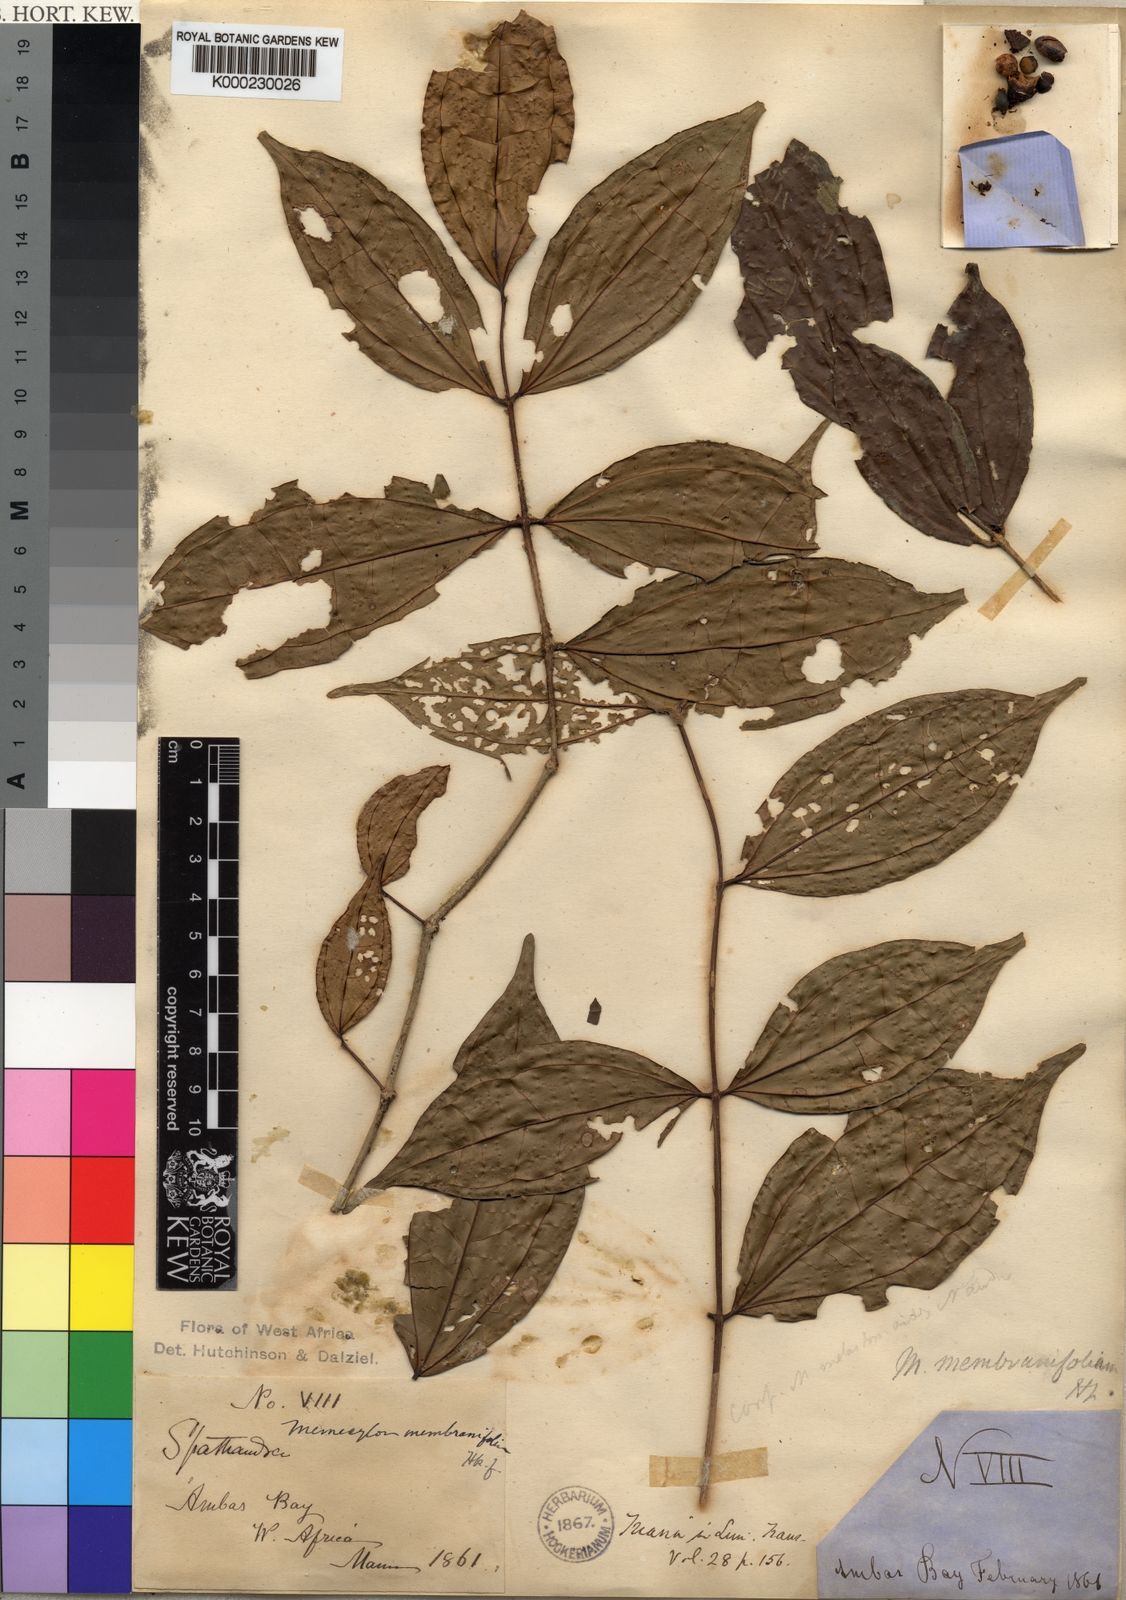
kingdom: Plantae
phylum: Tracheophyta
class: Magnoliopsida
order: Myrtales
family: Melastomataceae
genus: Warneckea
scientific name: Warneckea membranifolia
